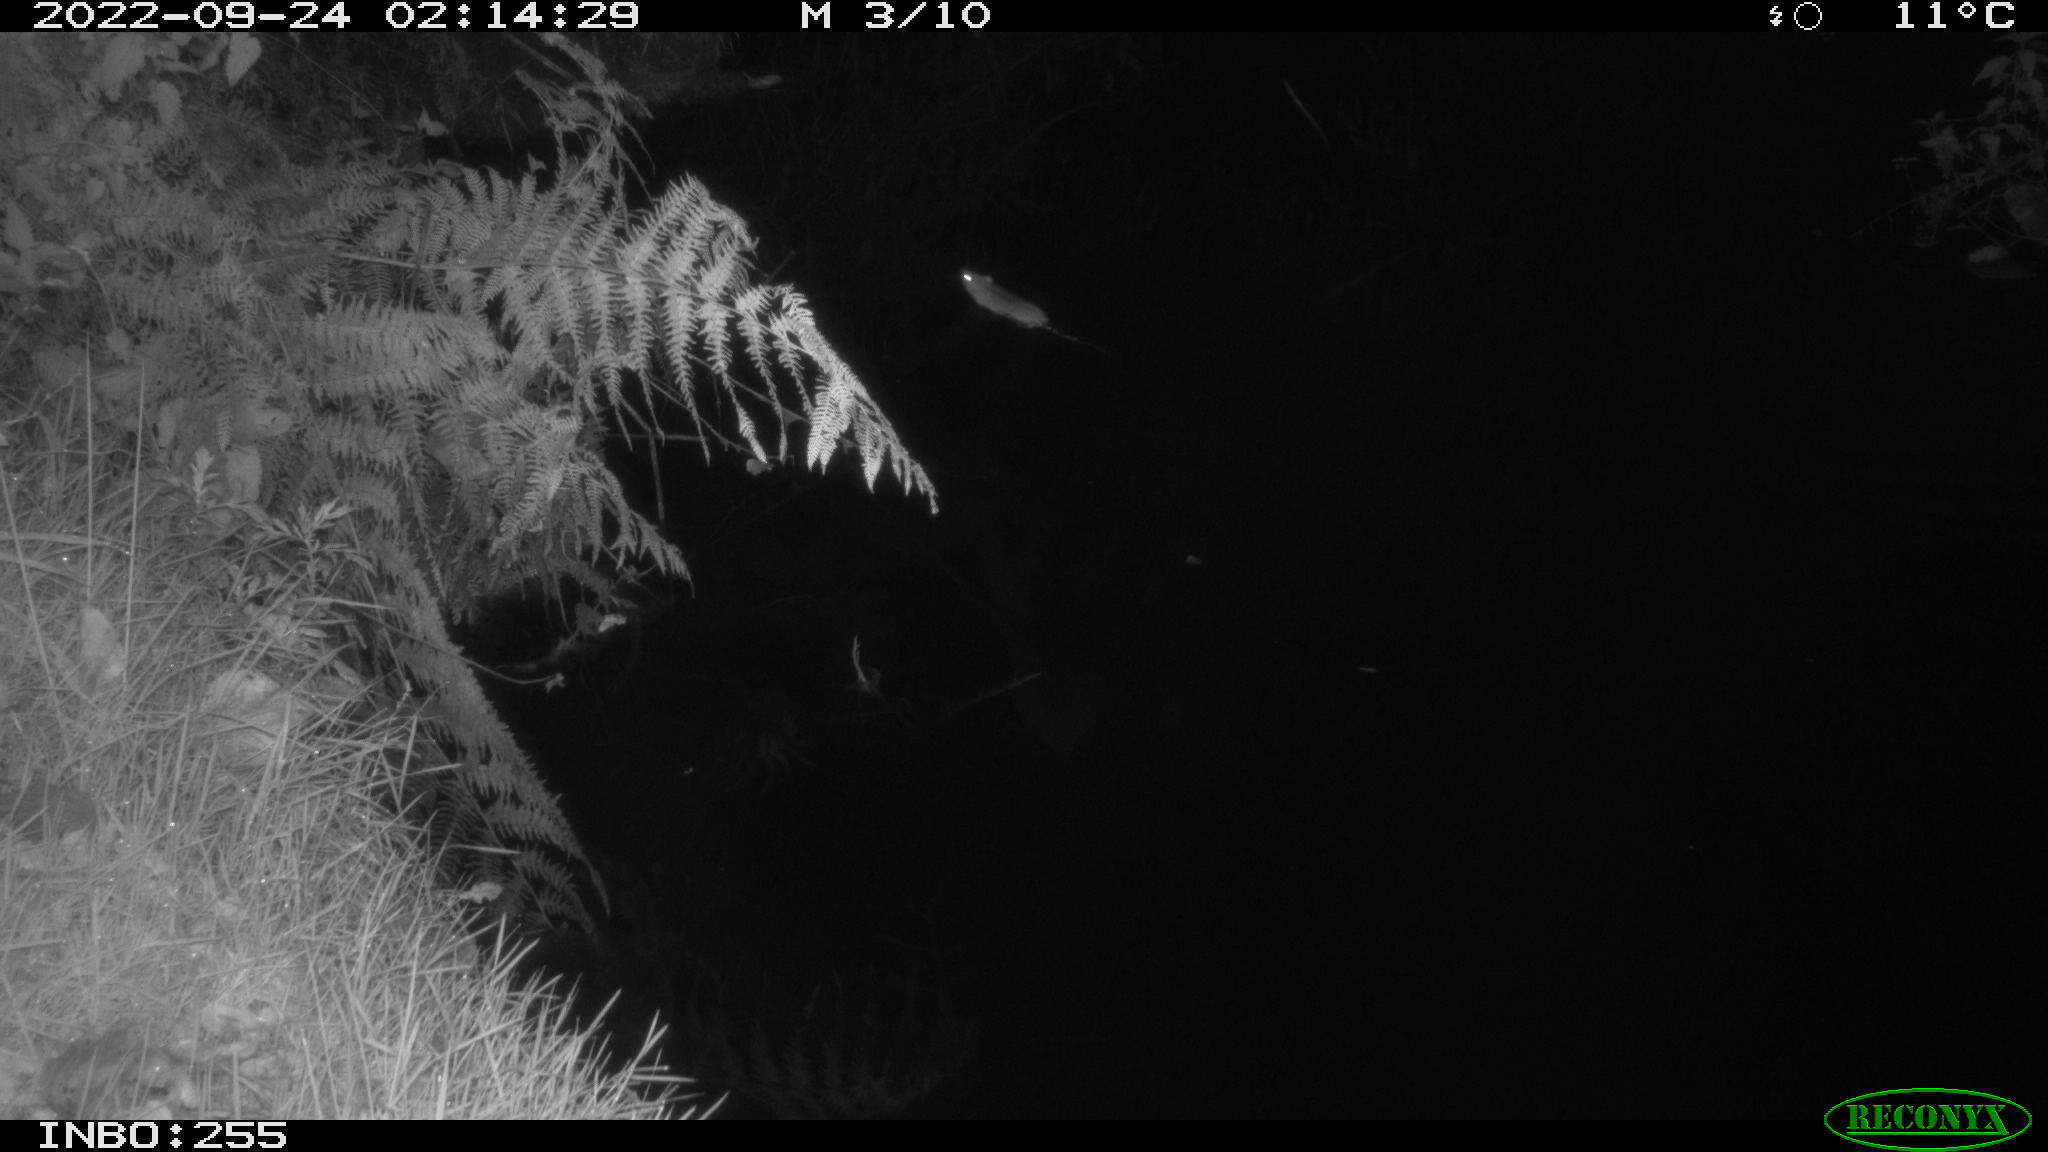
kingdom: Animalia
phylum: Chordata
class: Mammalia
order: Rodentia
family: Muridae
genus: Rattus
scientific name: Rattus norvegicus
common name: Brown rat
